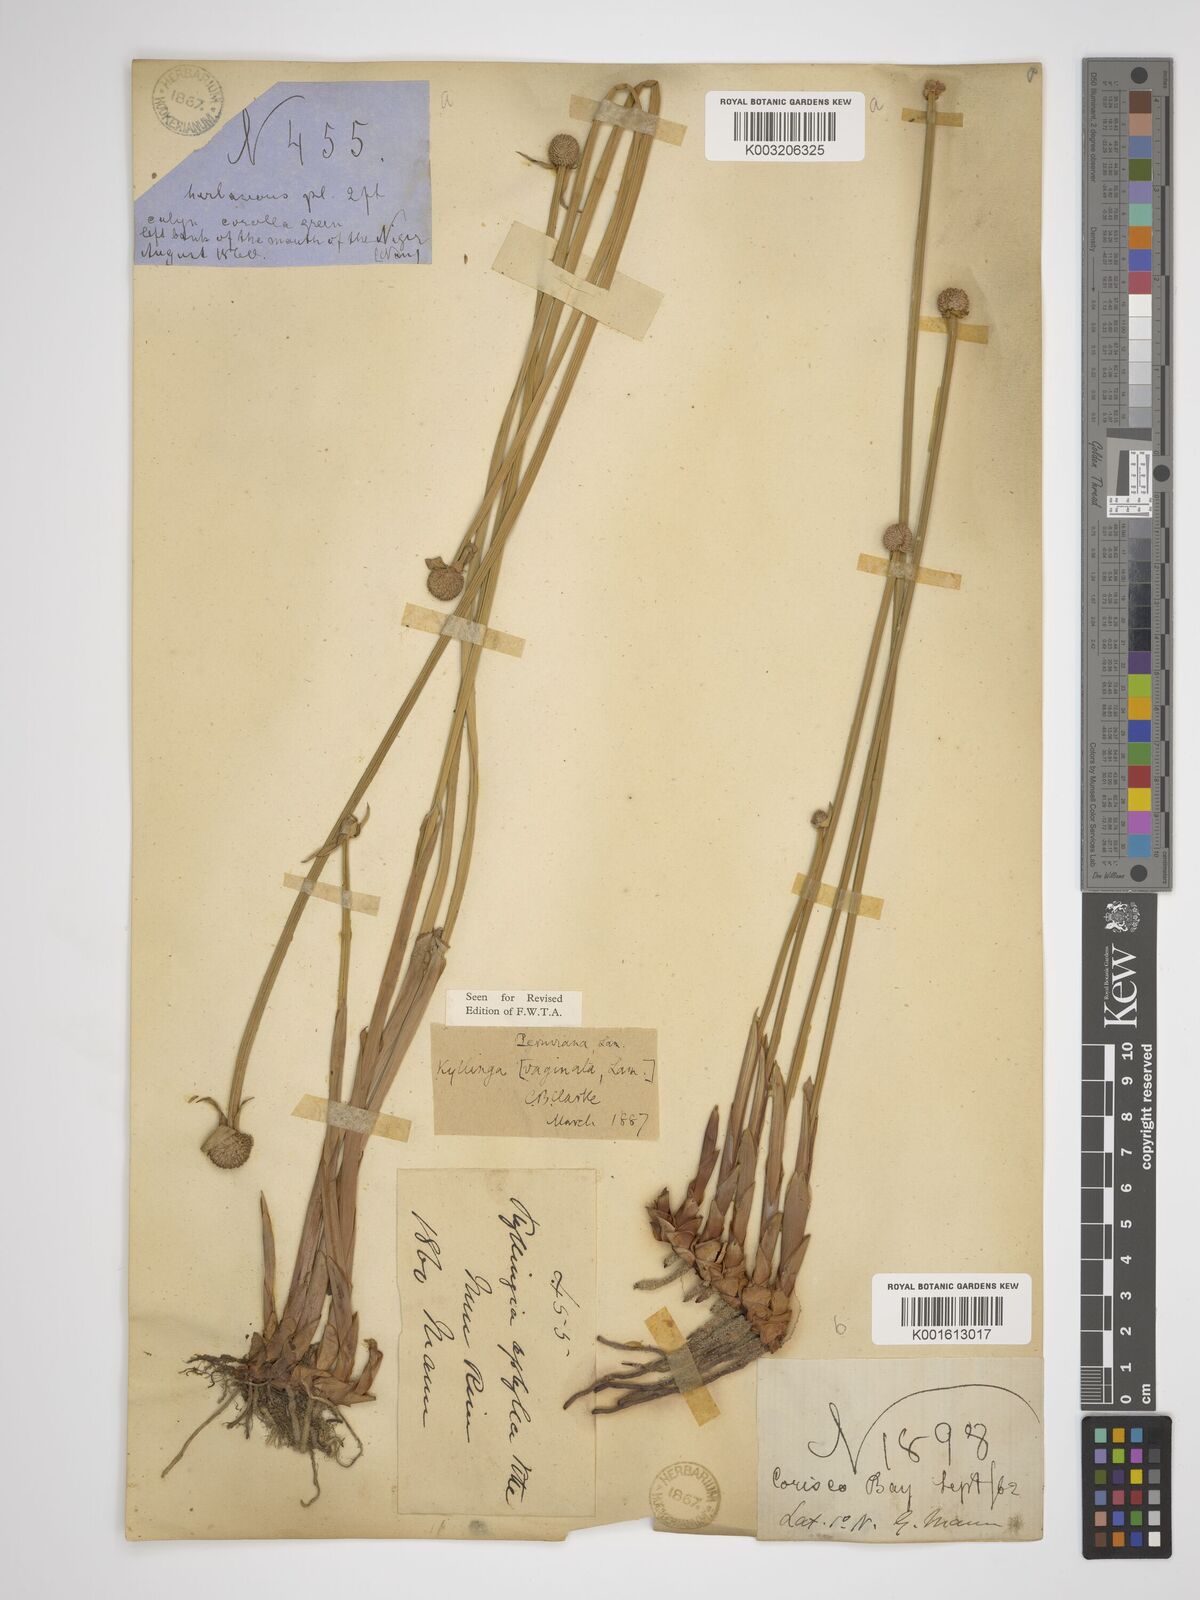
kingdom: Plantae
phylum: Tracheophyta
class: Liliopsida
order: Poales
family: Cyperaceae
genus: Cyperus
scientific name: Cyperus obtusatus
